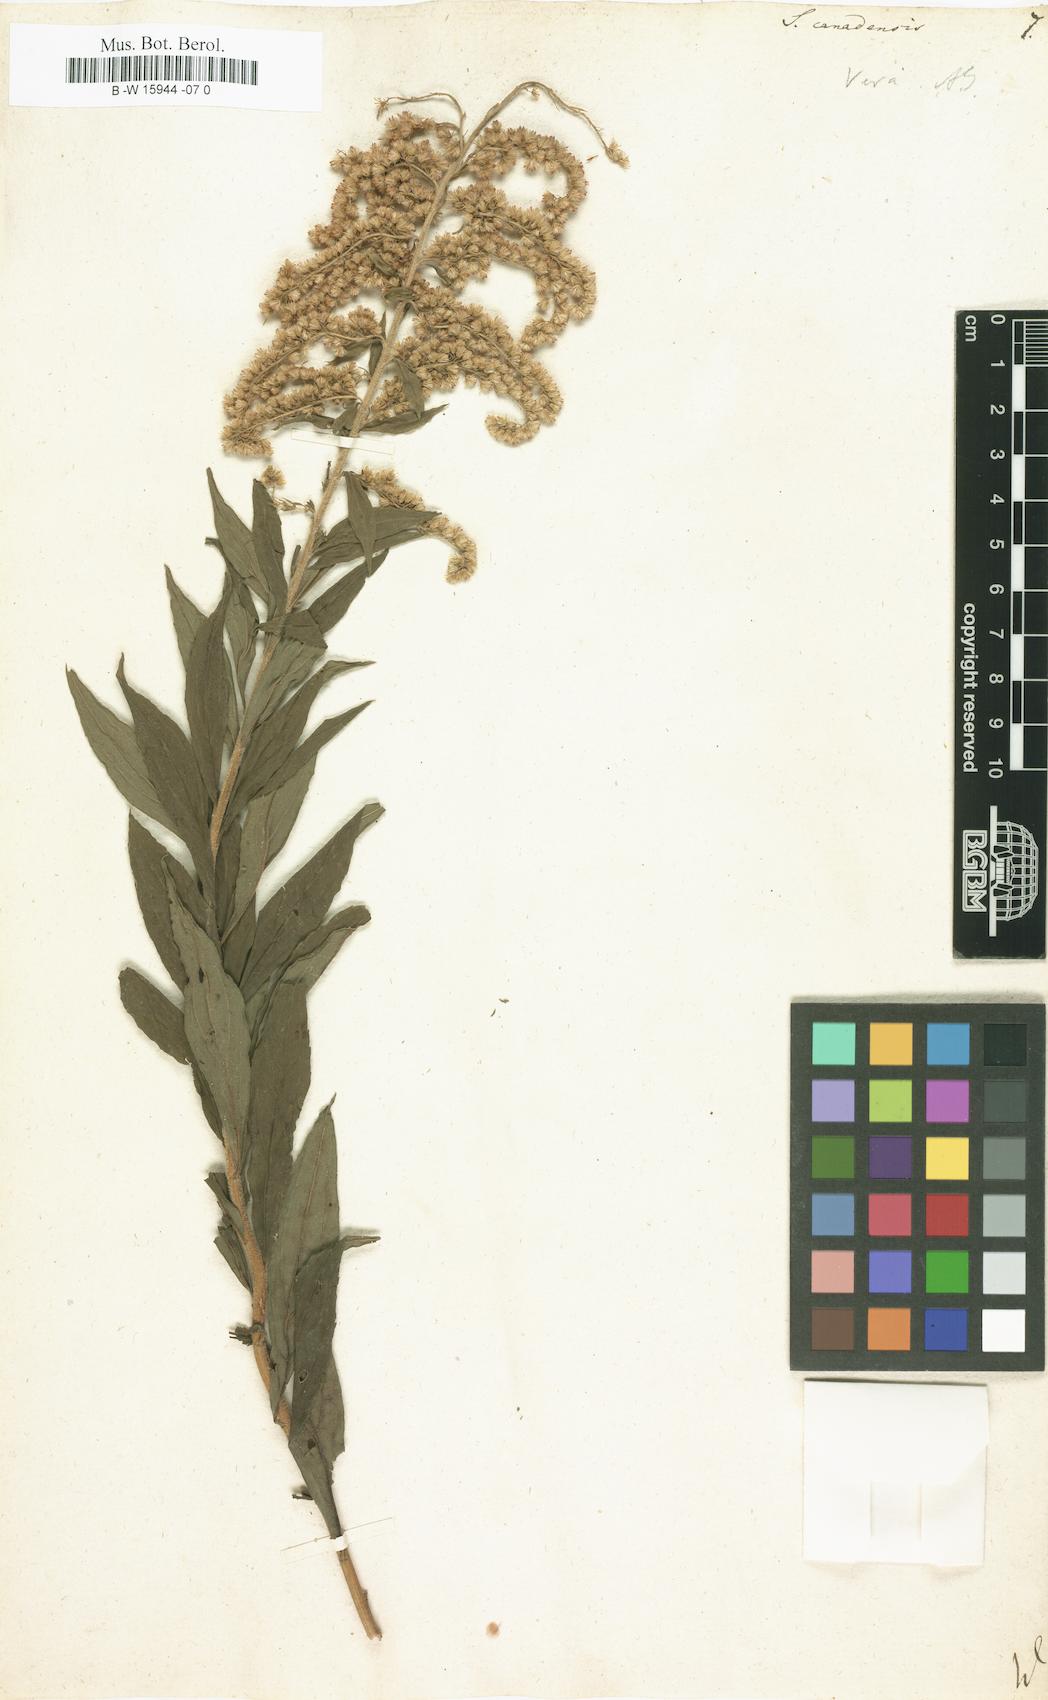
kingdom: Plantae
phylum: Tracheophyta
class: Magnoliopsida
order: Asterales
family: Asteraceae
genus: Solidago
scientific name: Solidago canadensis
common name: Canada goldenrod
